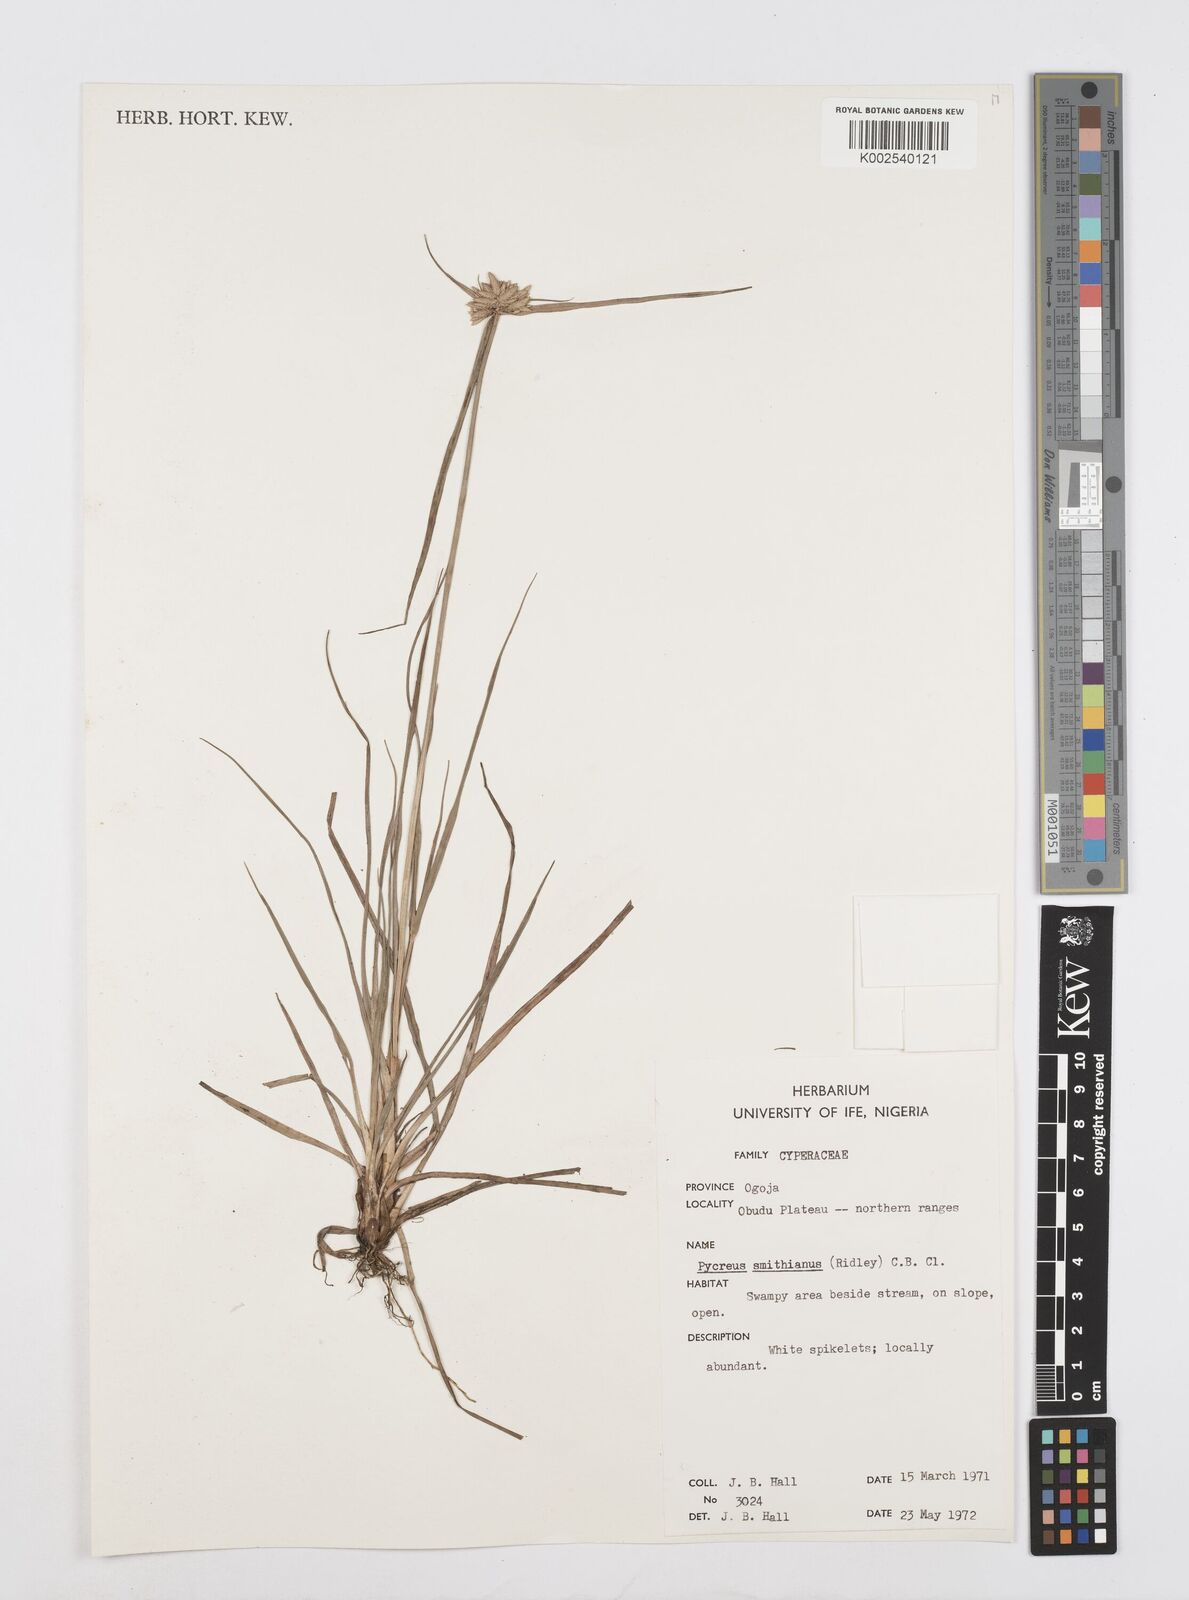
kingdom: Plantae
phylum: Tracheophyta
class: Liliopsida
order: Poales
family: Cyperaceae
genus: Cyperus
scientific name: Cyperus smithianus
